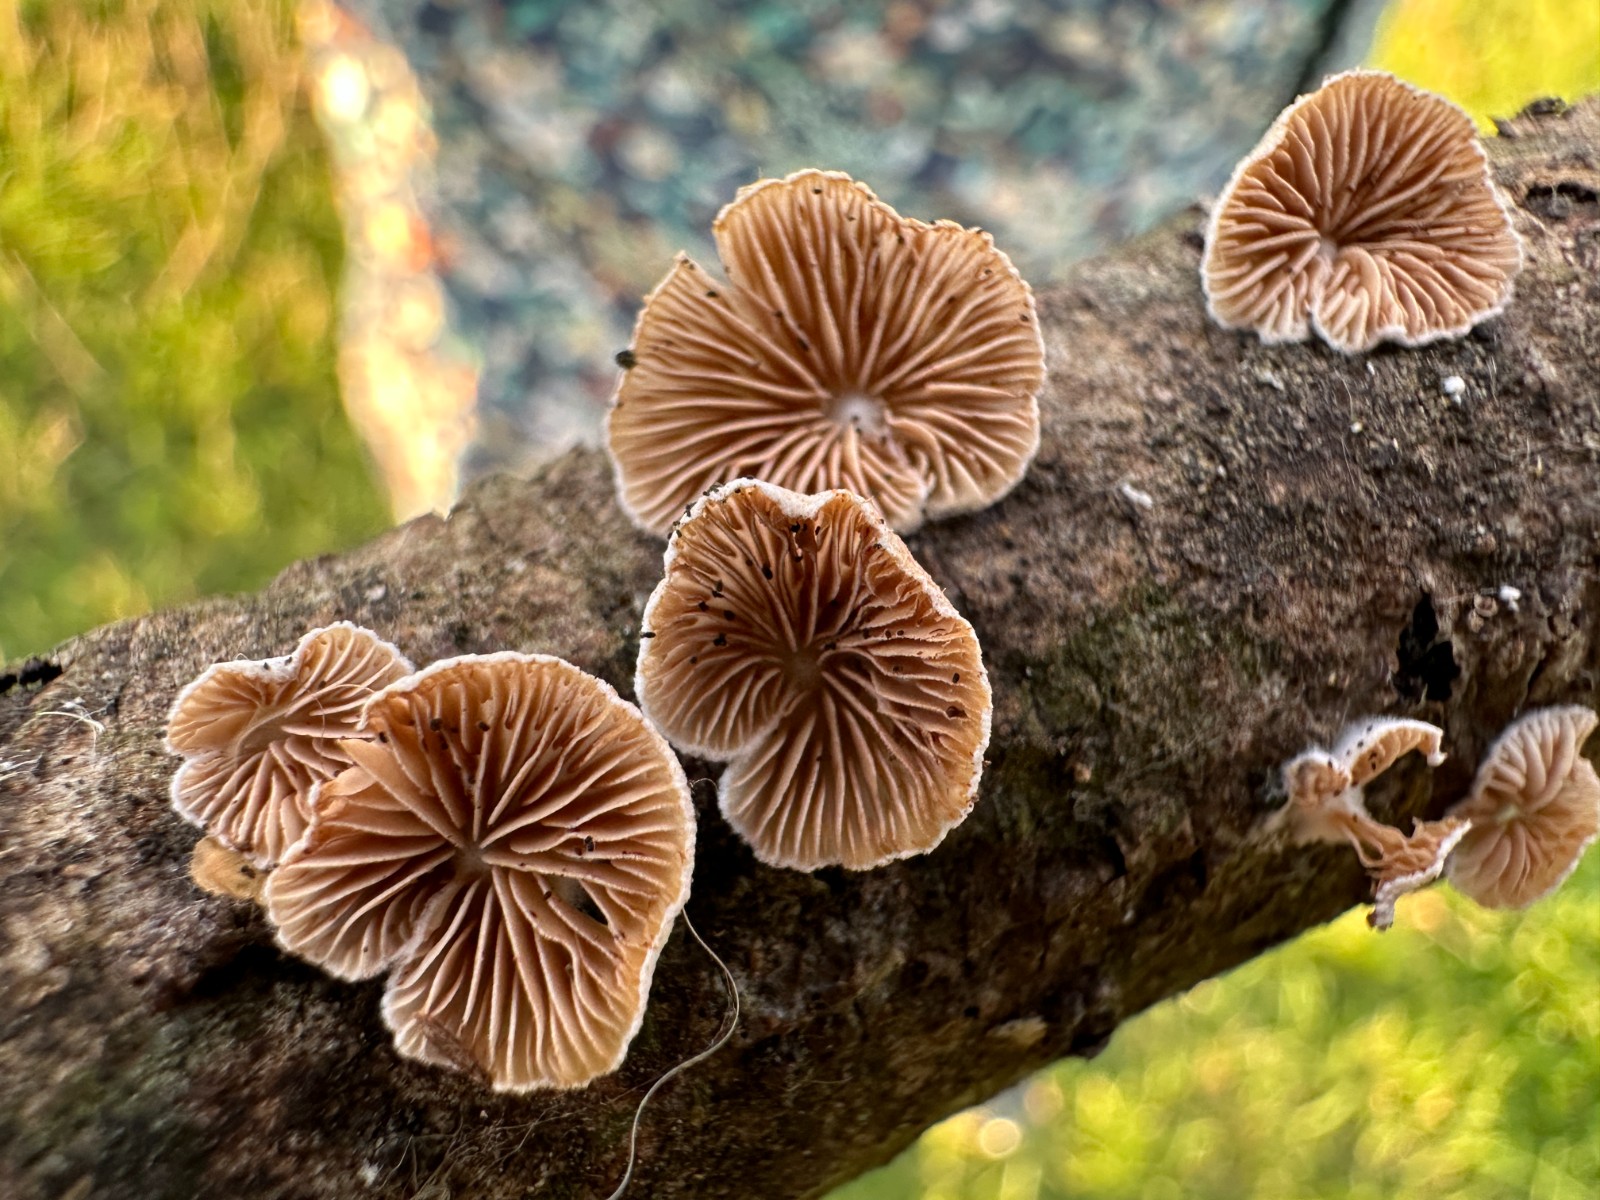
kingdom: Fungi
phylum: Basidiomycota
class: Agaricomycetes
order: Agaricales
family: Crepidotaceae
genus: Crepidotus
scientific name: Crepidotus cesatii
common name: almindelig muslingesvamp
